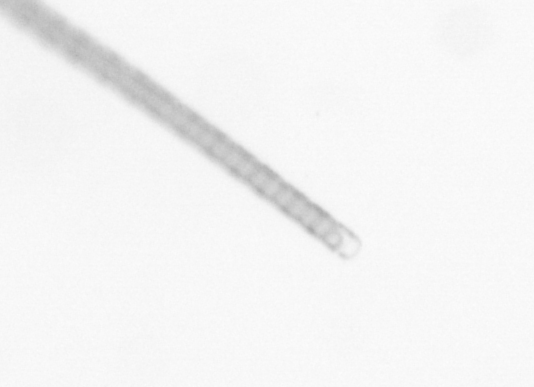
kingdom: Chromista
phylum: Ochrophyta
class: Bacillariophyceae
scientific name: Bacillariophyceae
